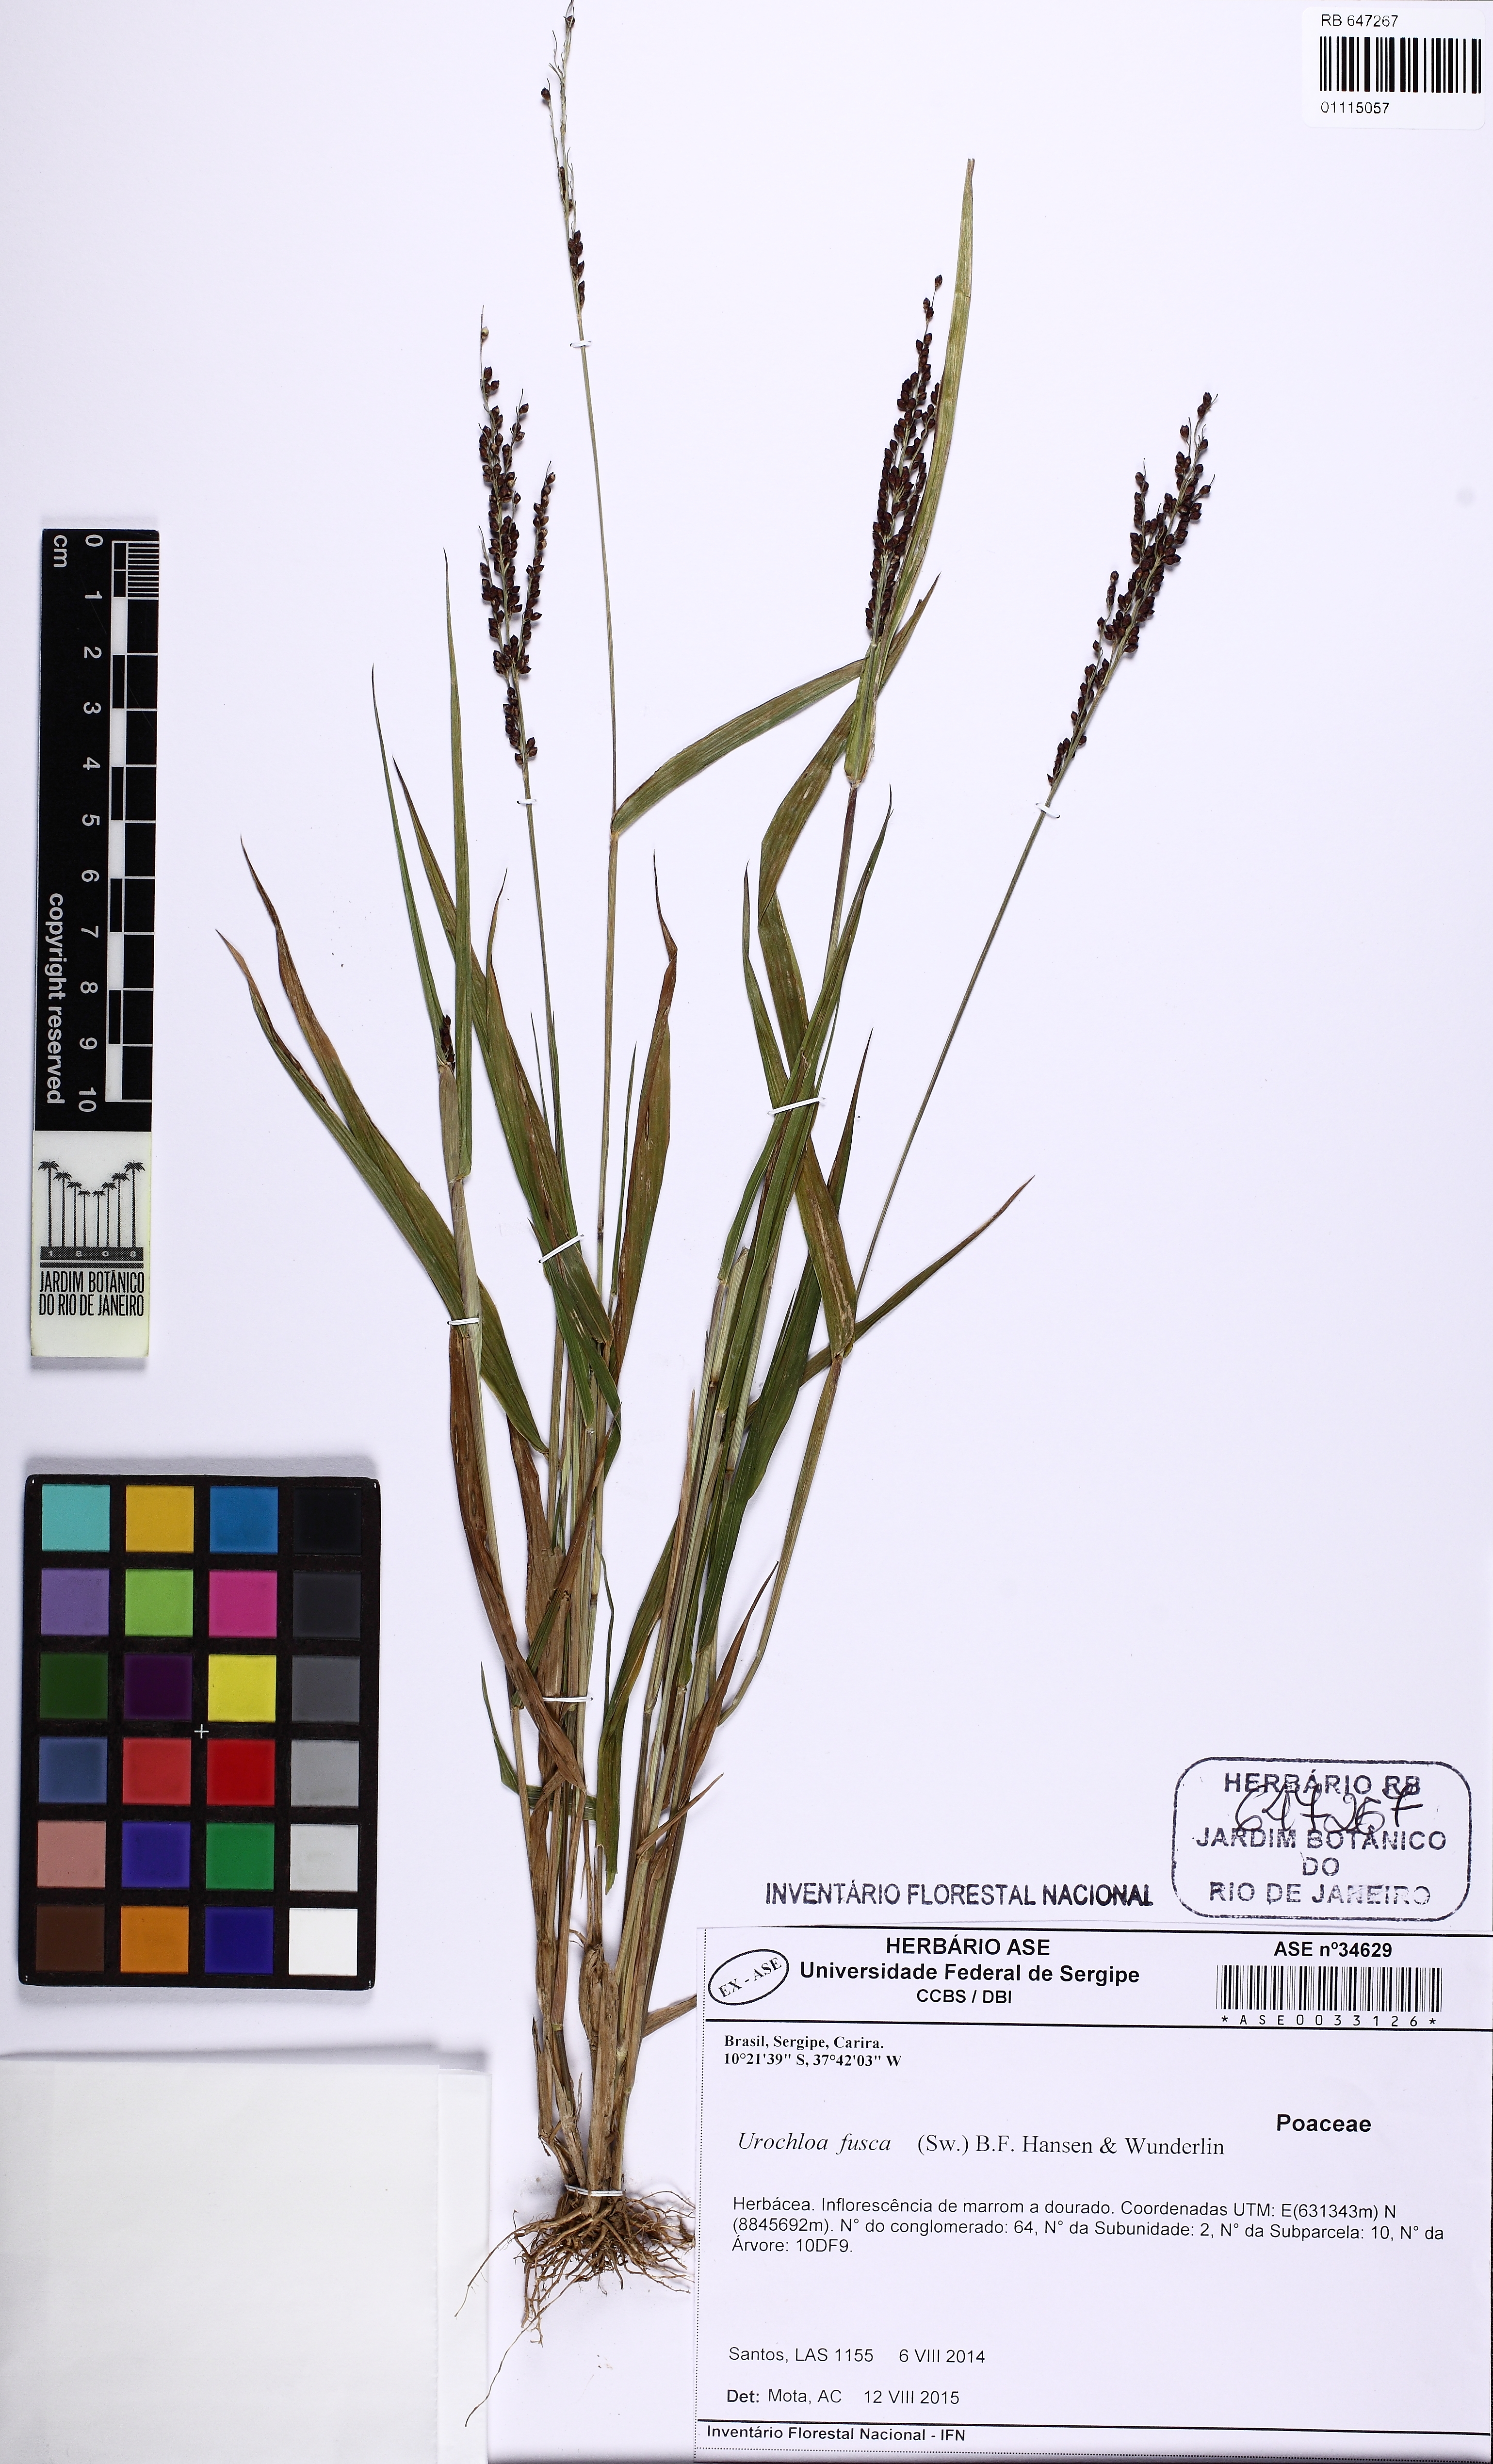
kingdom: Plantae
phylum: Tracheophyta
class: Liliopsida
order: Poales
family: Poaceae
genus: Urochloa
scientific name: Urochloa fusca
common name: Browntop signal grass
